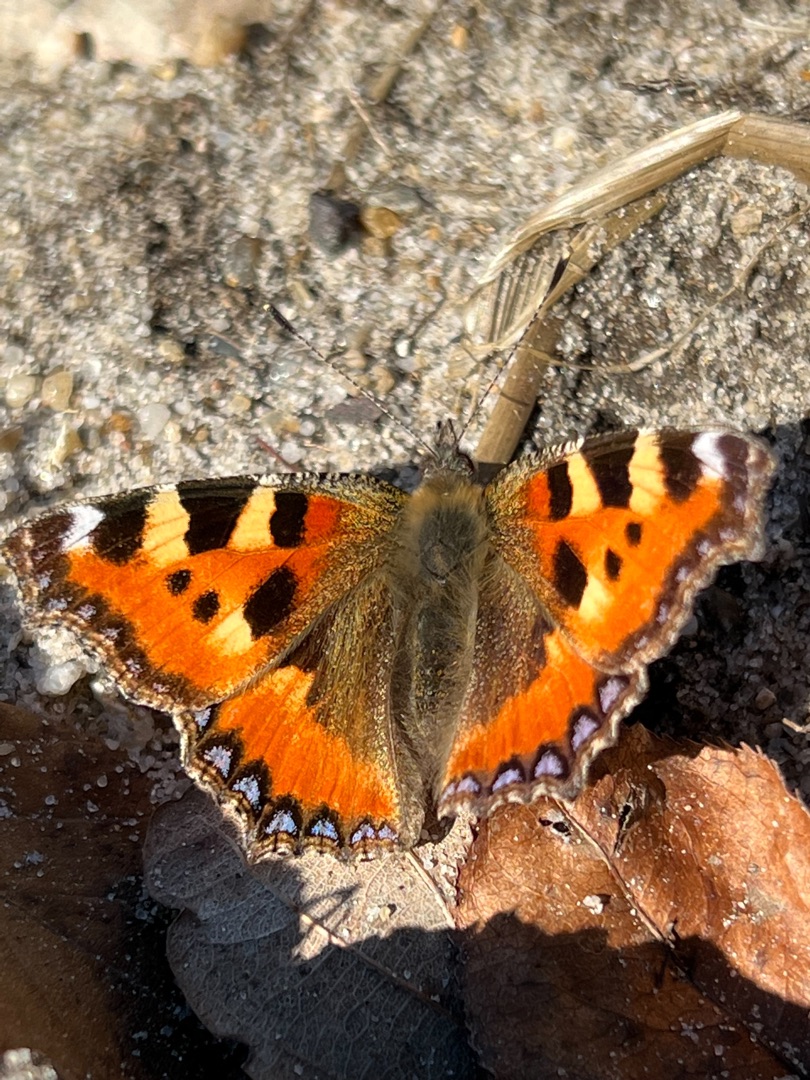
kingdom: Animalia
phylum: Arthropoda
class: Insecta
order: Lepidoptera
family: Nymphalidae
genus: Aglais
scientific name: Aglais urticae
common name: Nældens takvinge
